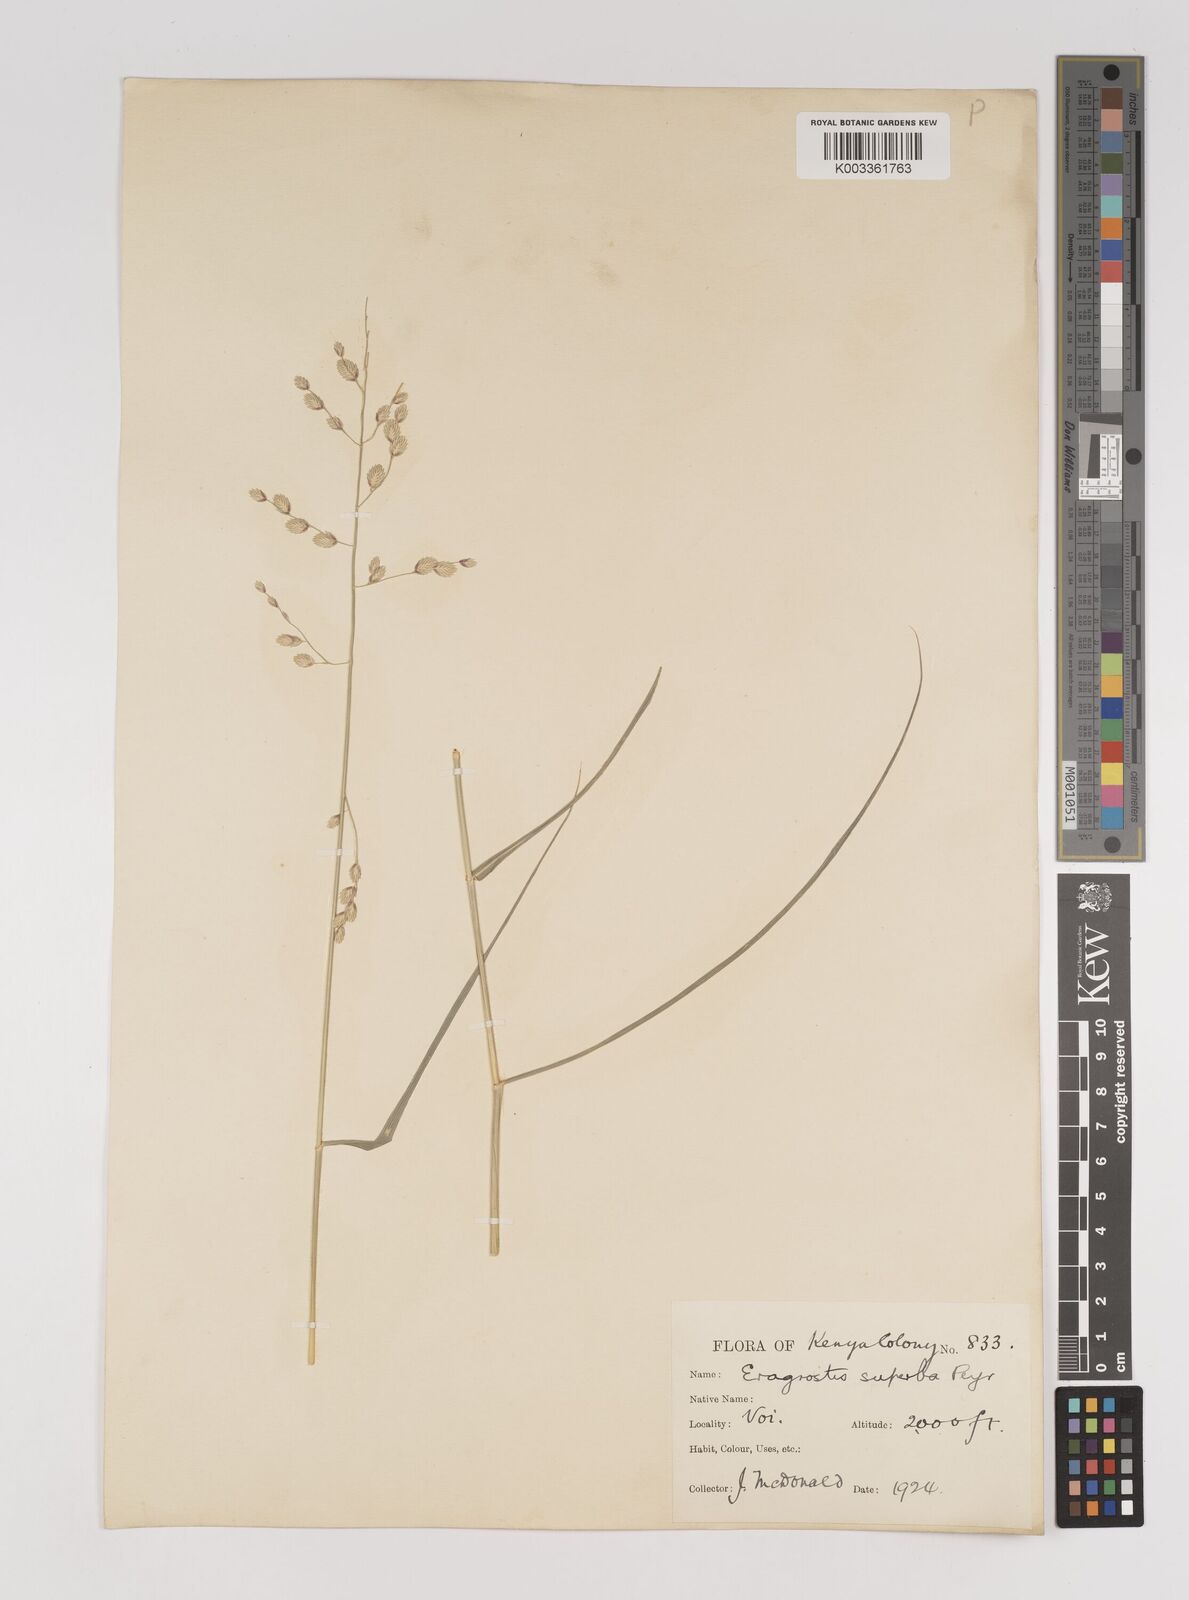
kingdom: Plantae
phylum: Tracheophyta
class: Liliopsida
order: Poales
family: Poaceae
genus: Eragrostis
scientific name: Eragrostis superba
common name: Wilman lovegrass
